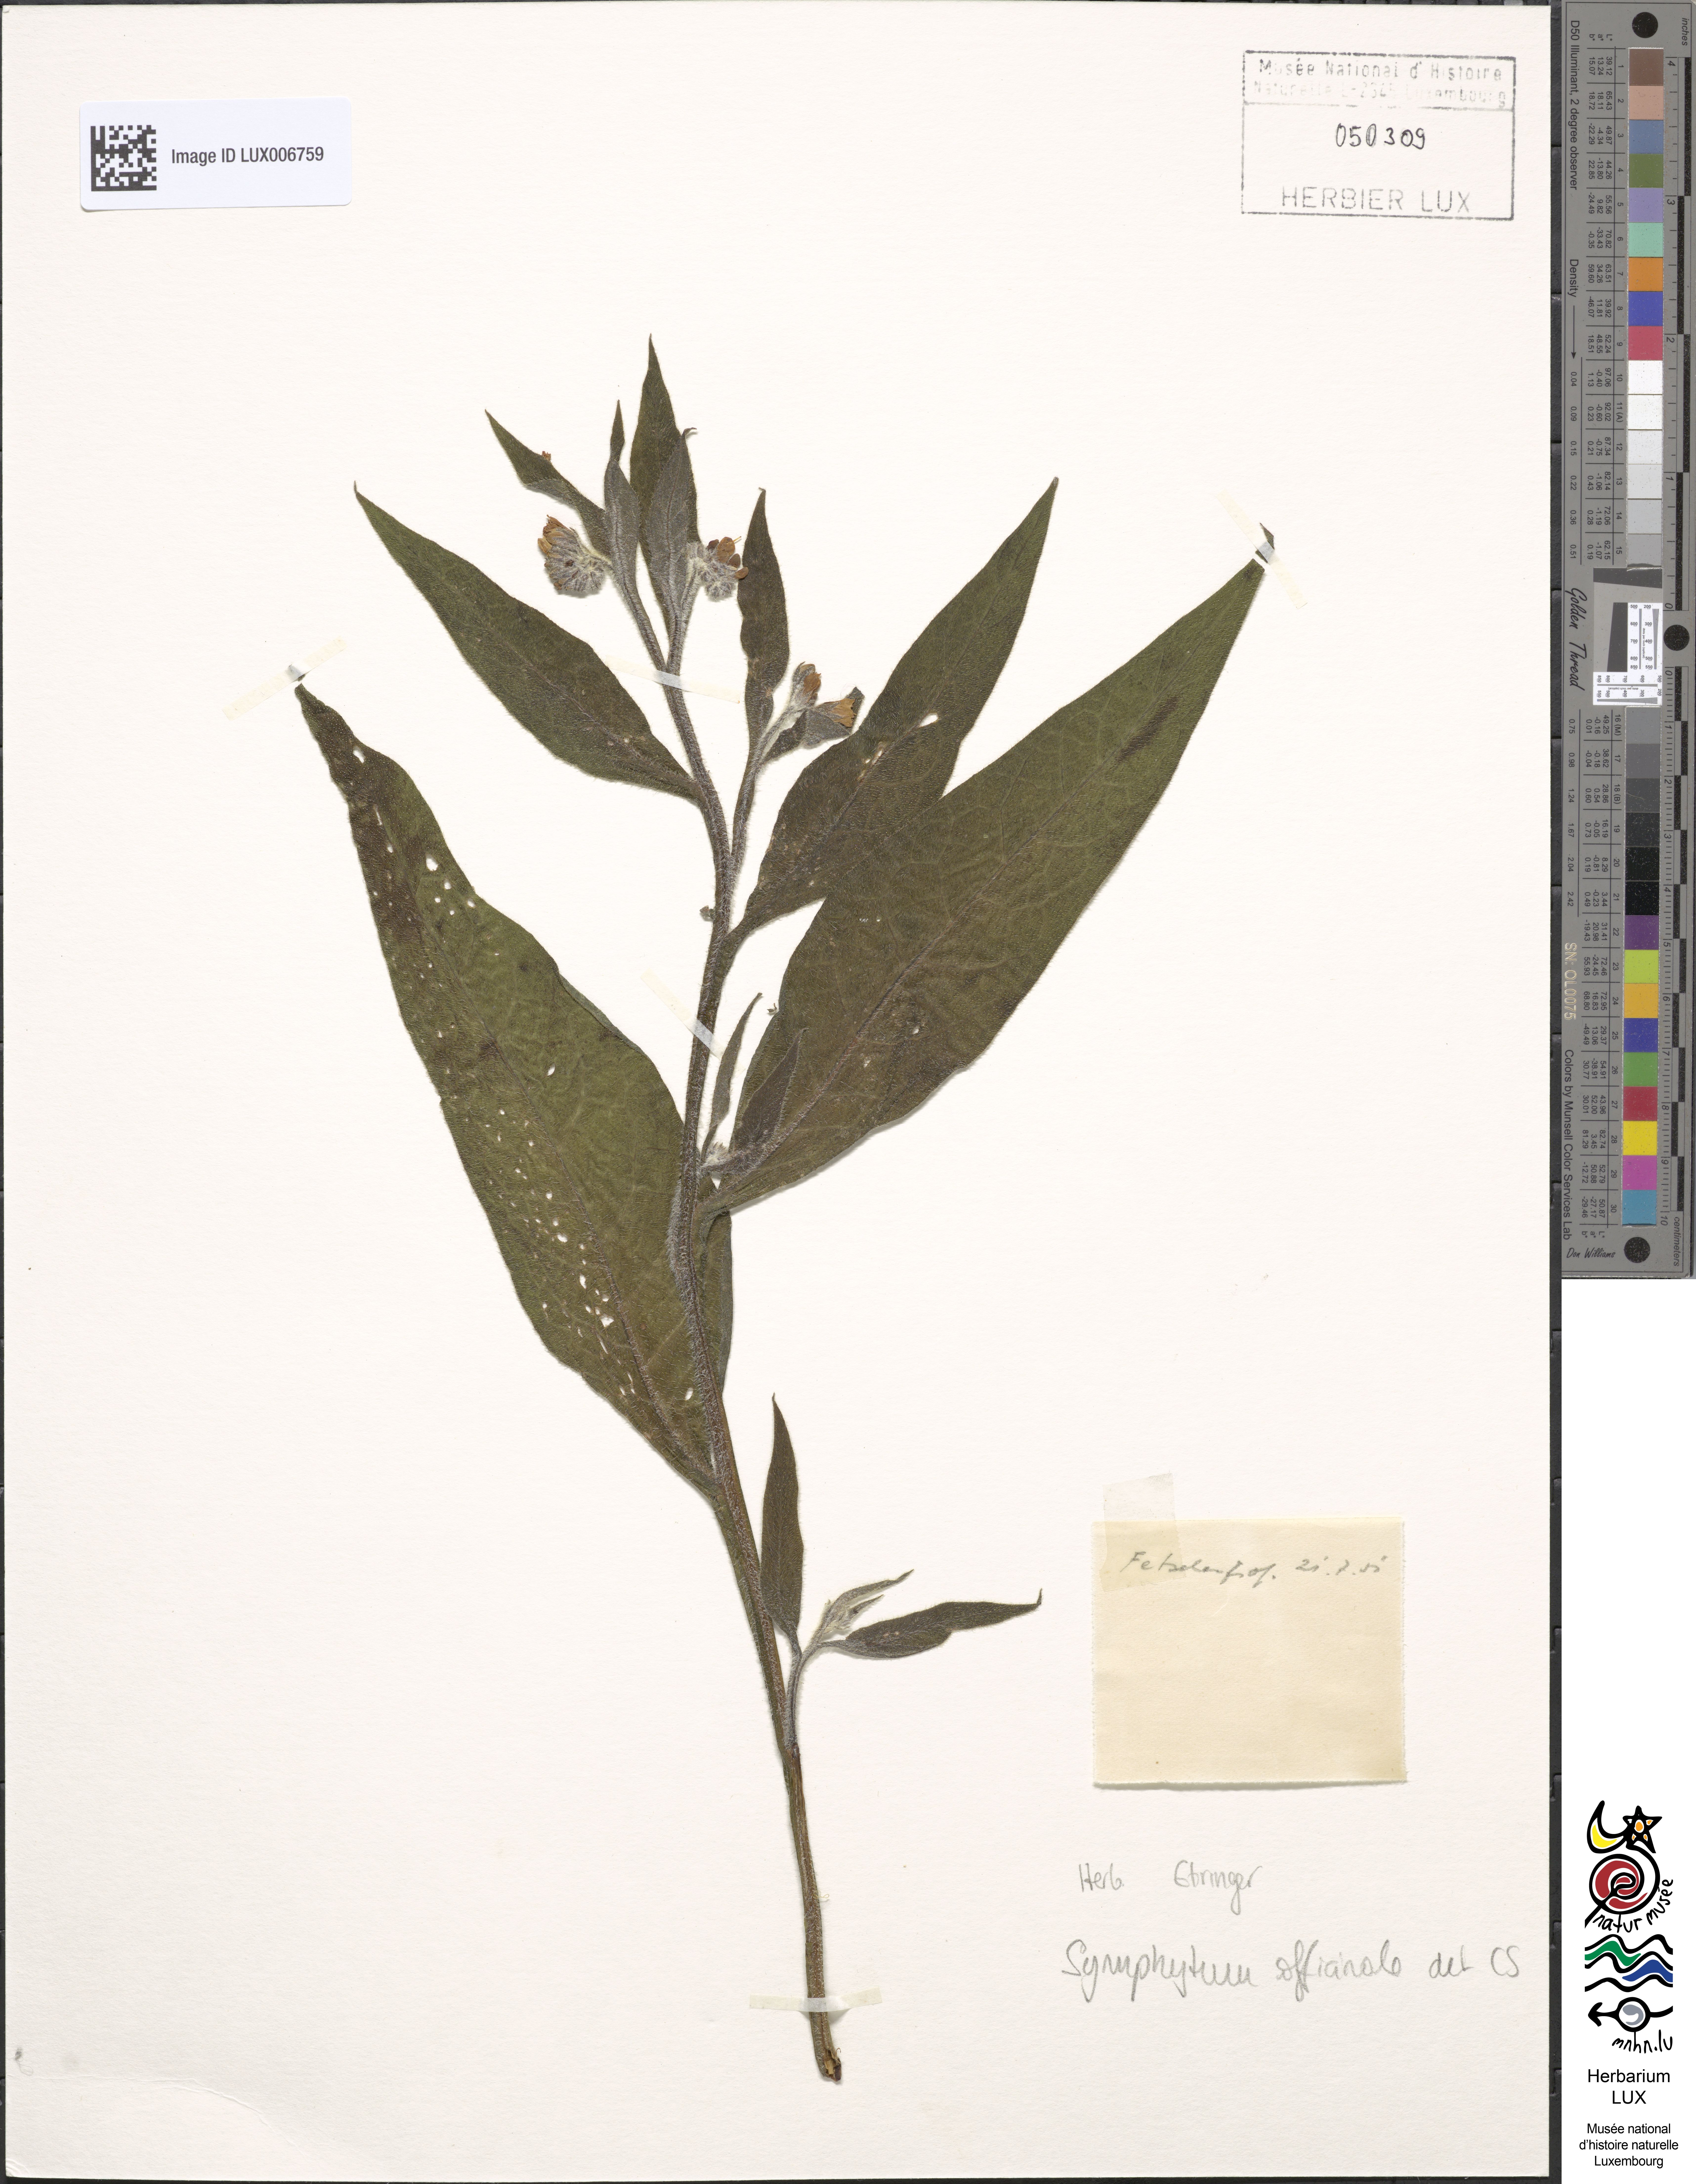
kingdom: Plantae
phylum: Tracheophyta
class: Magnoliopsida
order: Boraginales
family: Boraginaceae
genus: Symphytum
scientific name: Symphytum officinale
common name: Common comfrey
